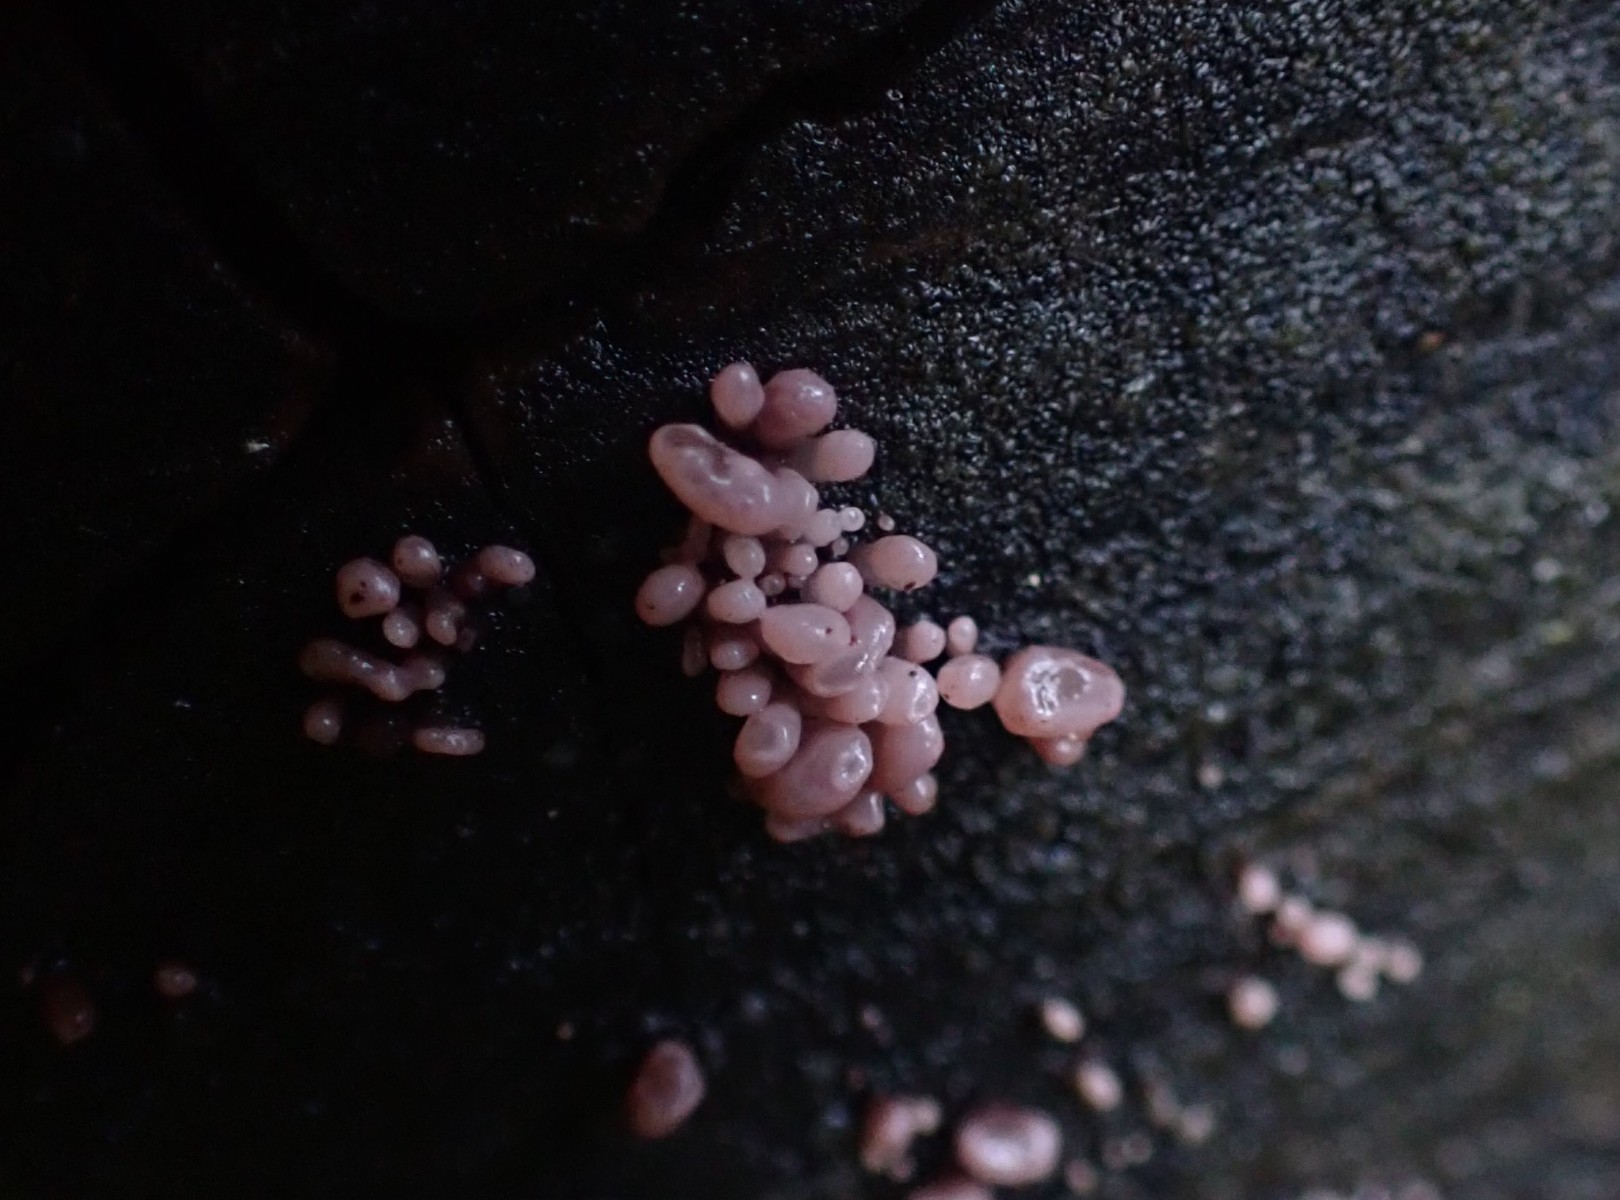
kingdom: Fungi
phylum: Ascomycota
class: Leotiomycetes
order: Helotiales
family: Gelatinodiscaceae
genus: Ascocoryne
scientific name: Ascocoryne sarcoides
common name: rødlilla sejskive
